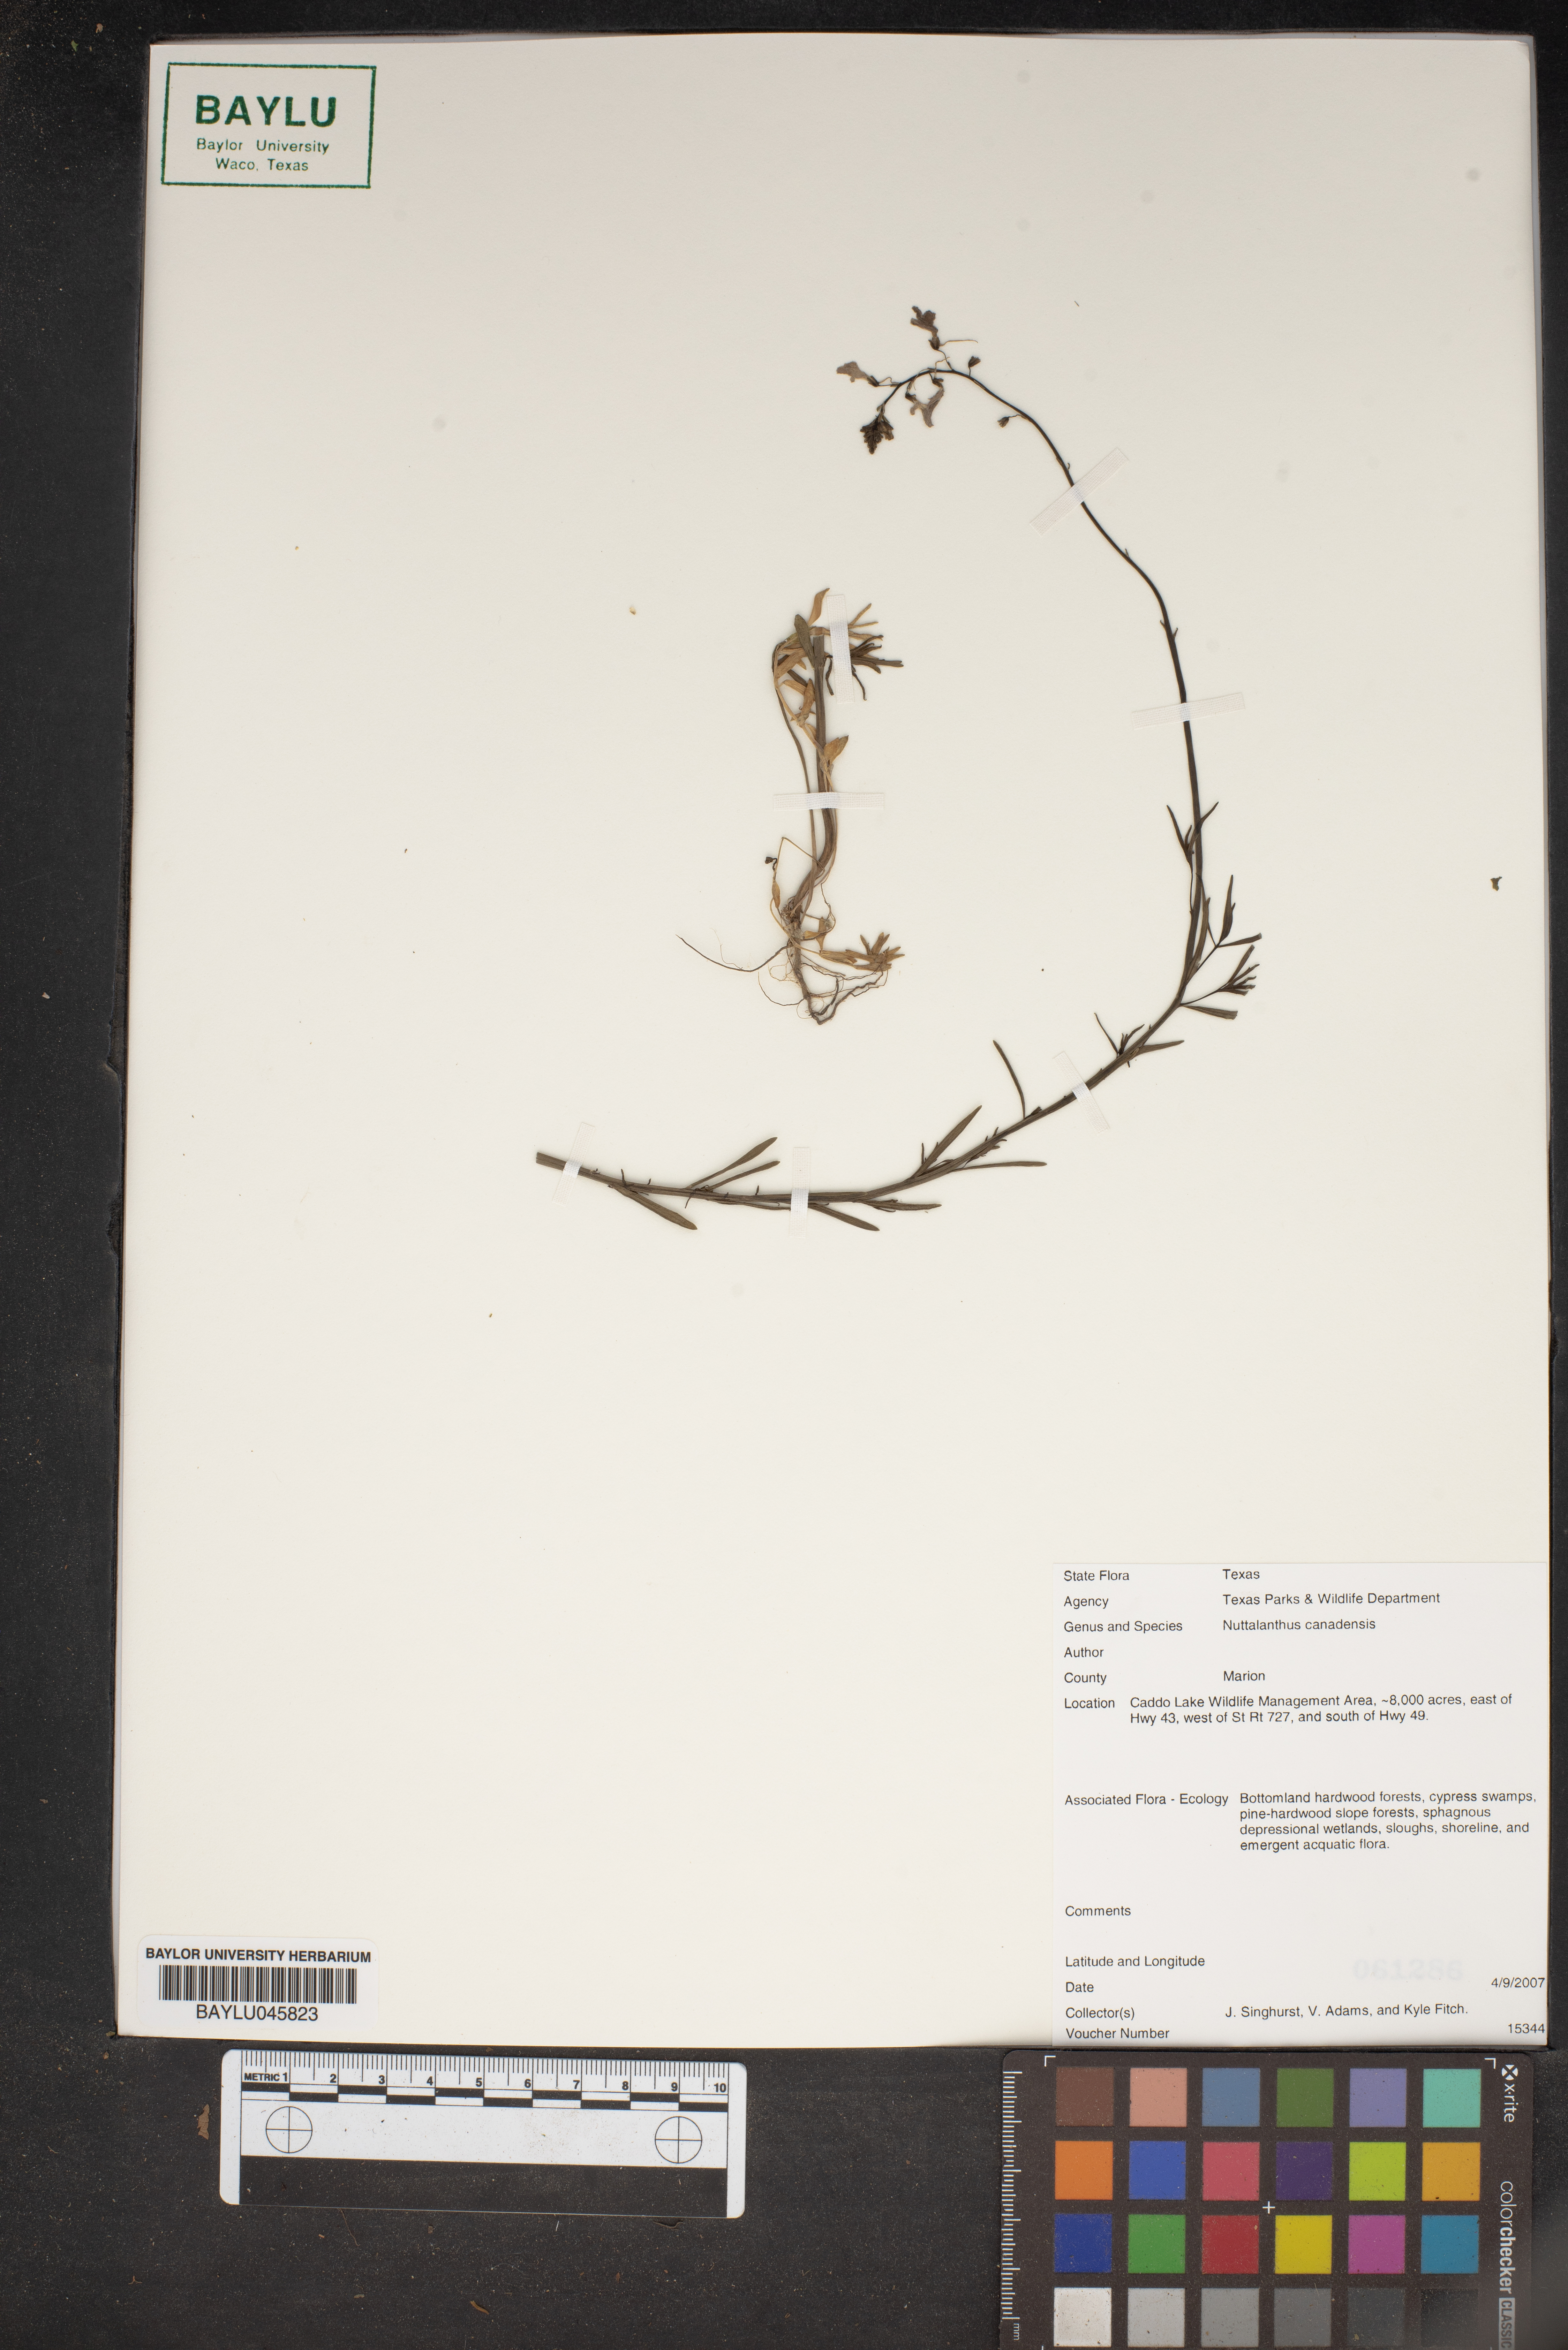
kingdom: Plantae
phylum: Tracheophyta
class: Magnoliopsida
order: Lamiales
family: Plantaginaceae
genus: Nuttallanthus
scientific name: Nuttallanthus canadensis
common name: Blue toadflax
